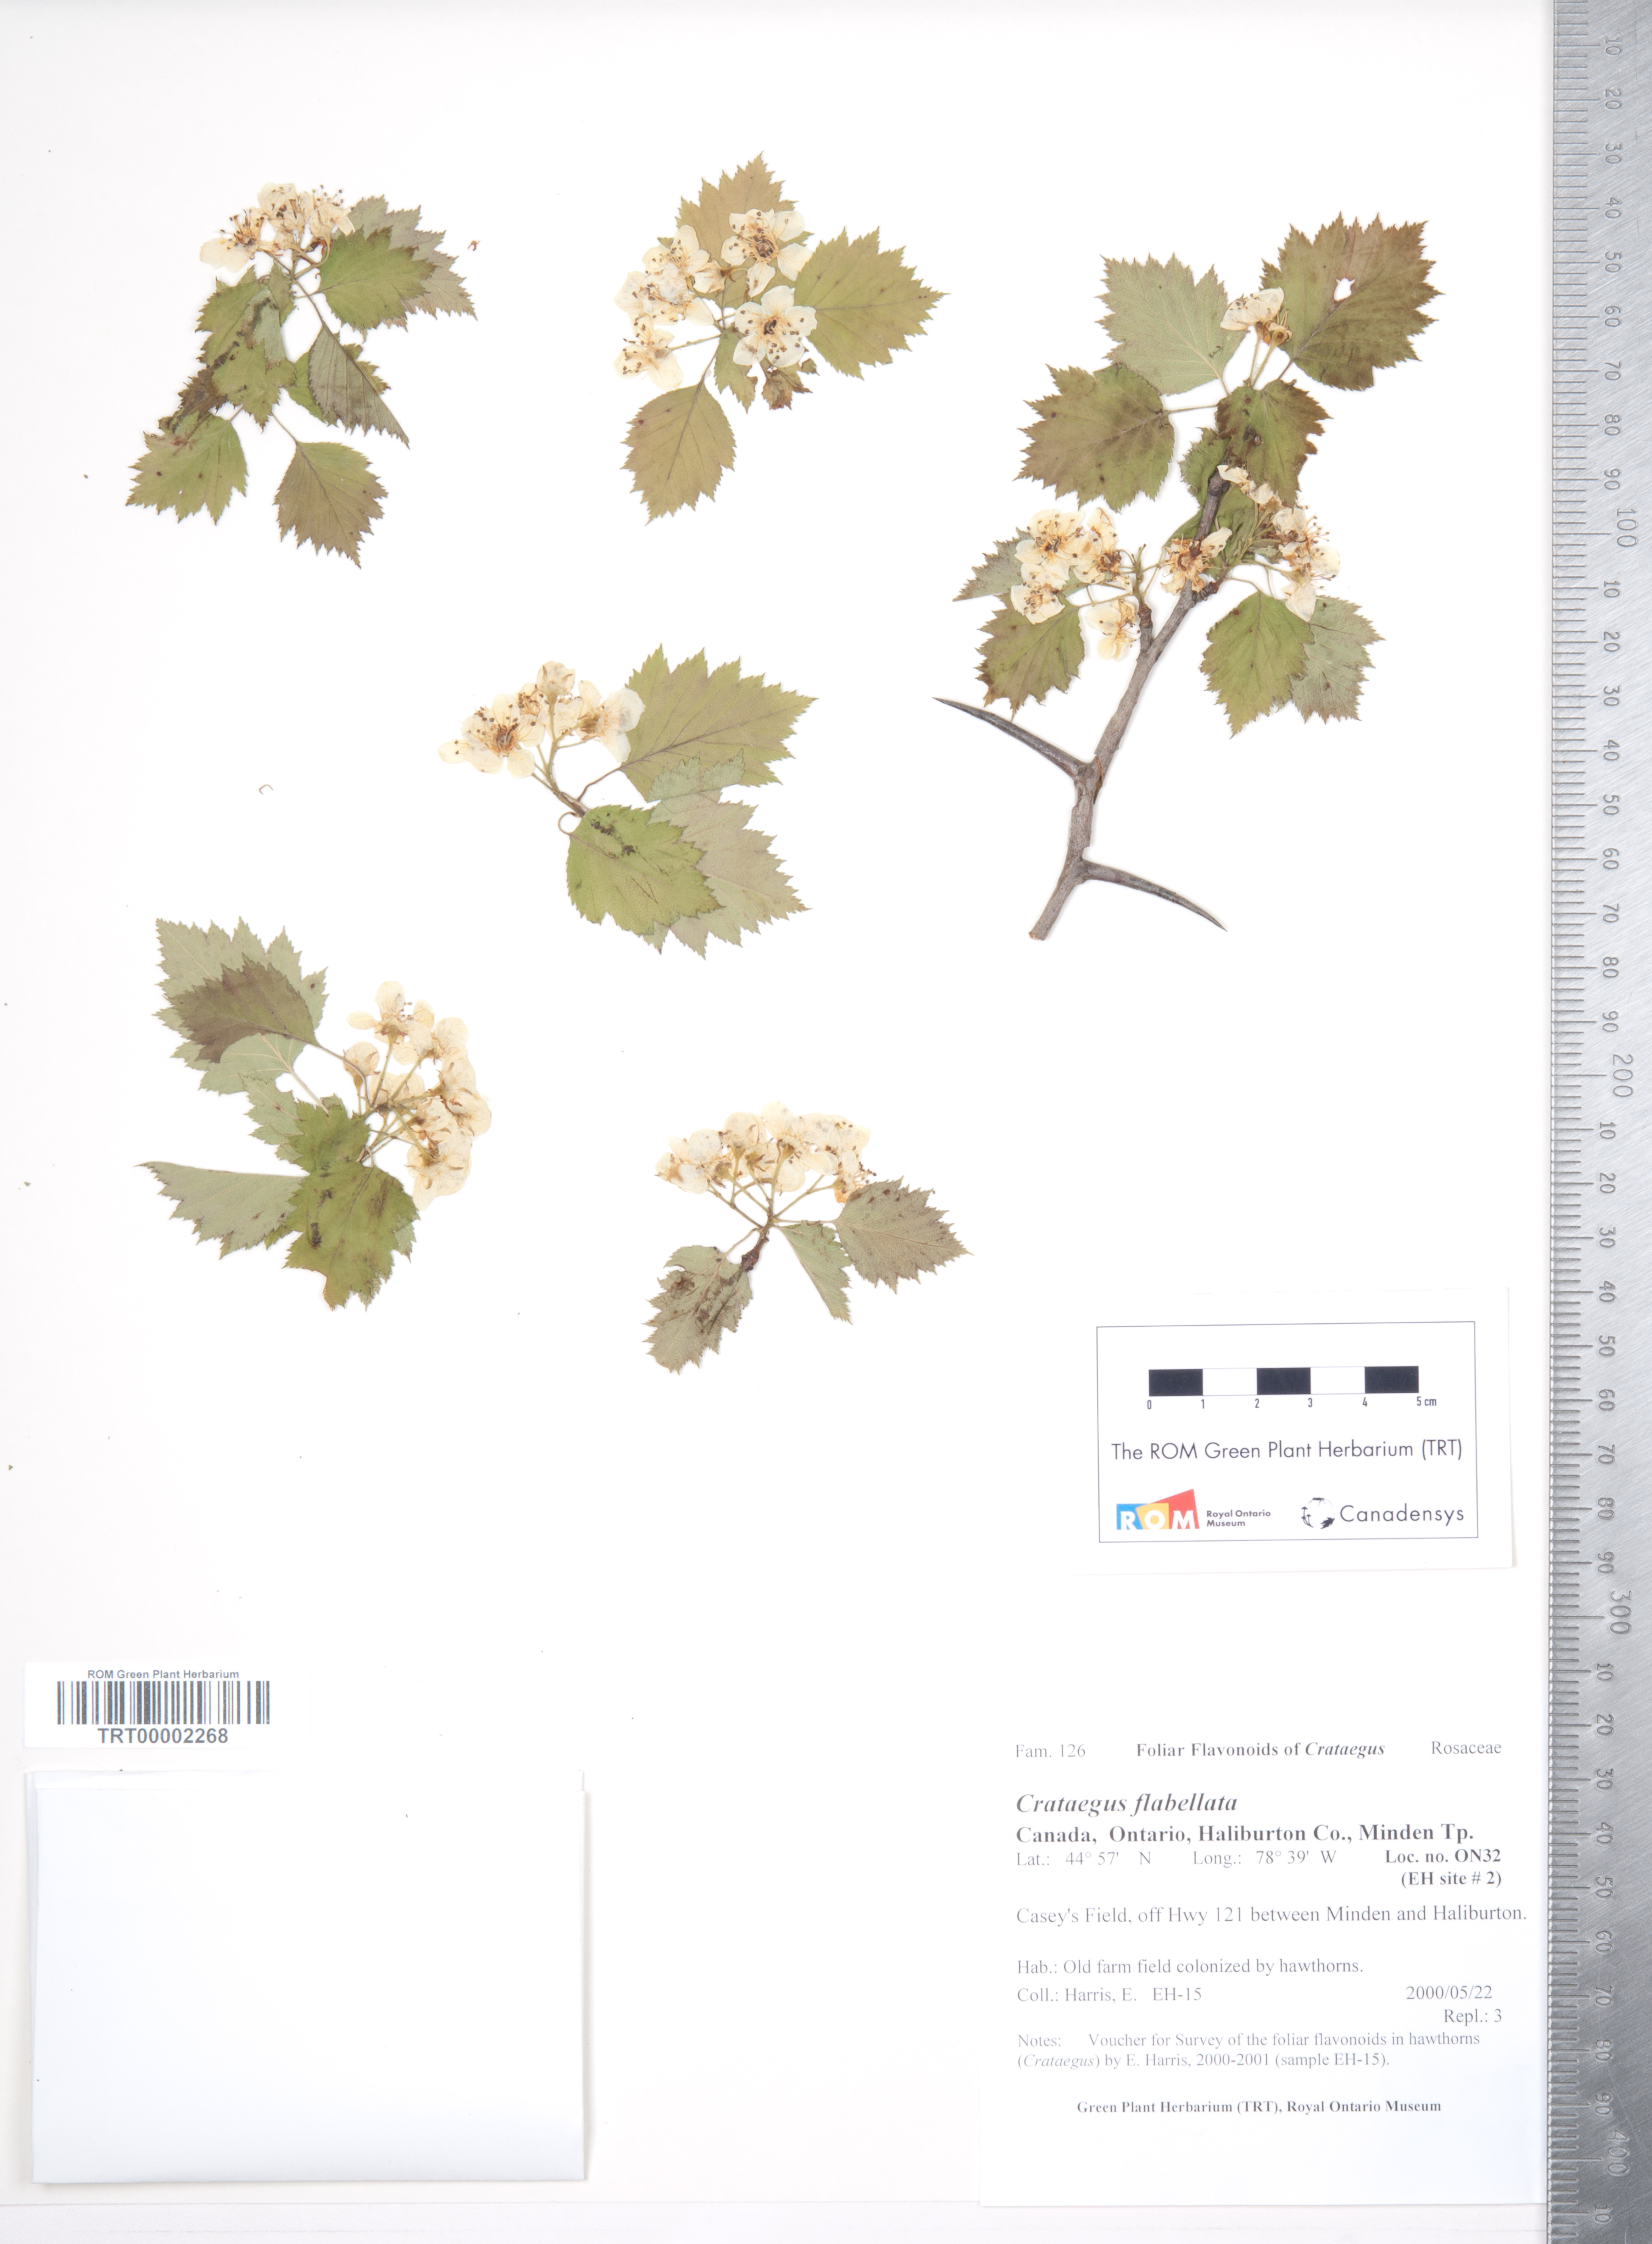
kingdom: Plantae
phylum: Tracheophyta
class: Magnoliopsida
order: Rosales
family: Rosaceae
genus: Crataegus
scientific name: Crataegus flabellata
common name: Bosc's hawthorn
